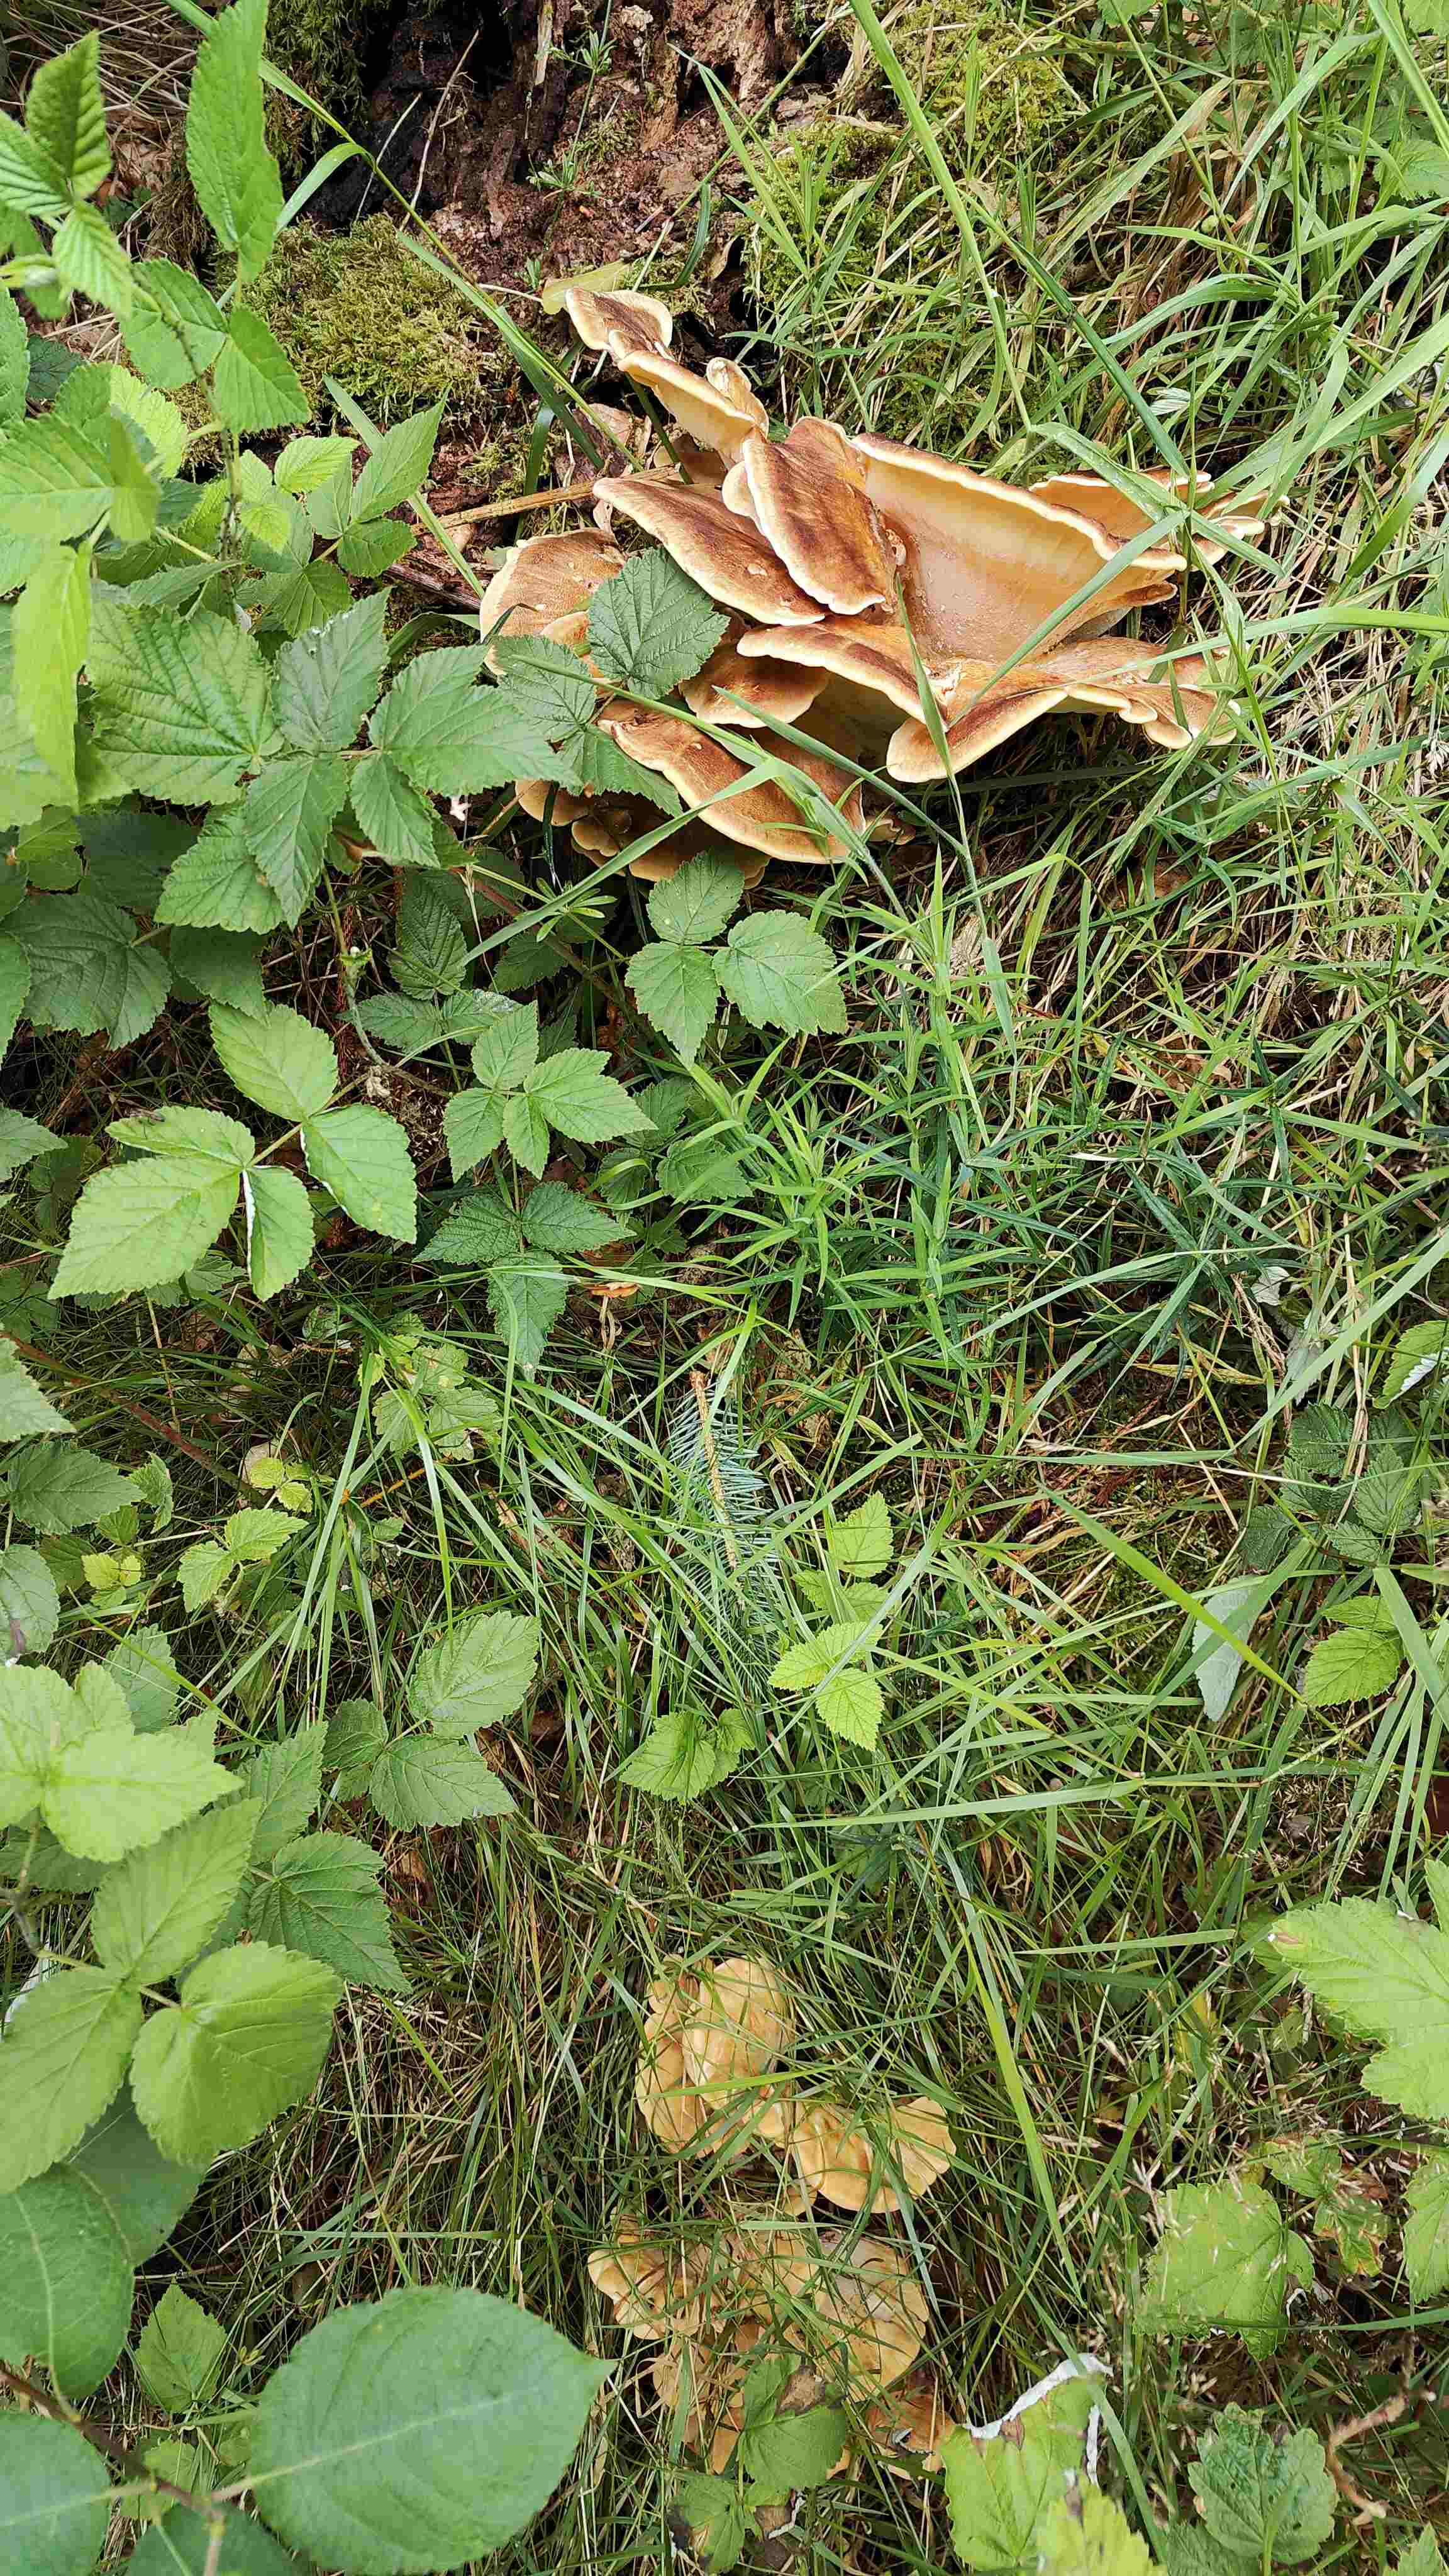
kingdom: Fungi
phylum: Basidiomycota
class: Agaricomycetes
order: Polyporales
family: Meripilaceae
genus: Meripilus
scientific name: Meripilus giganteus
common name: kæmpeporesvamp
